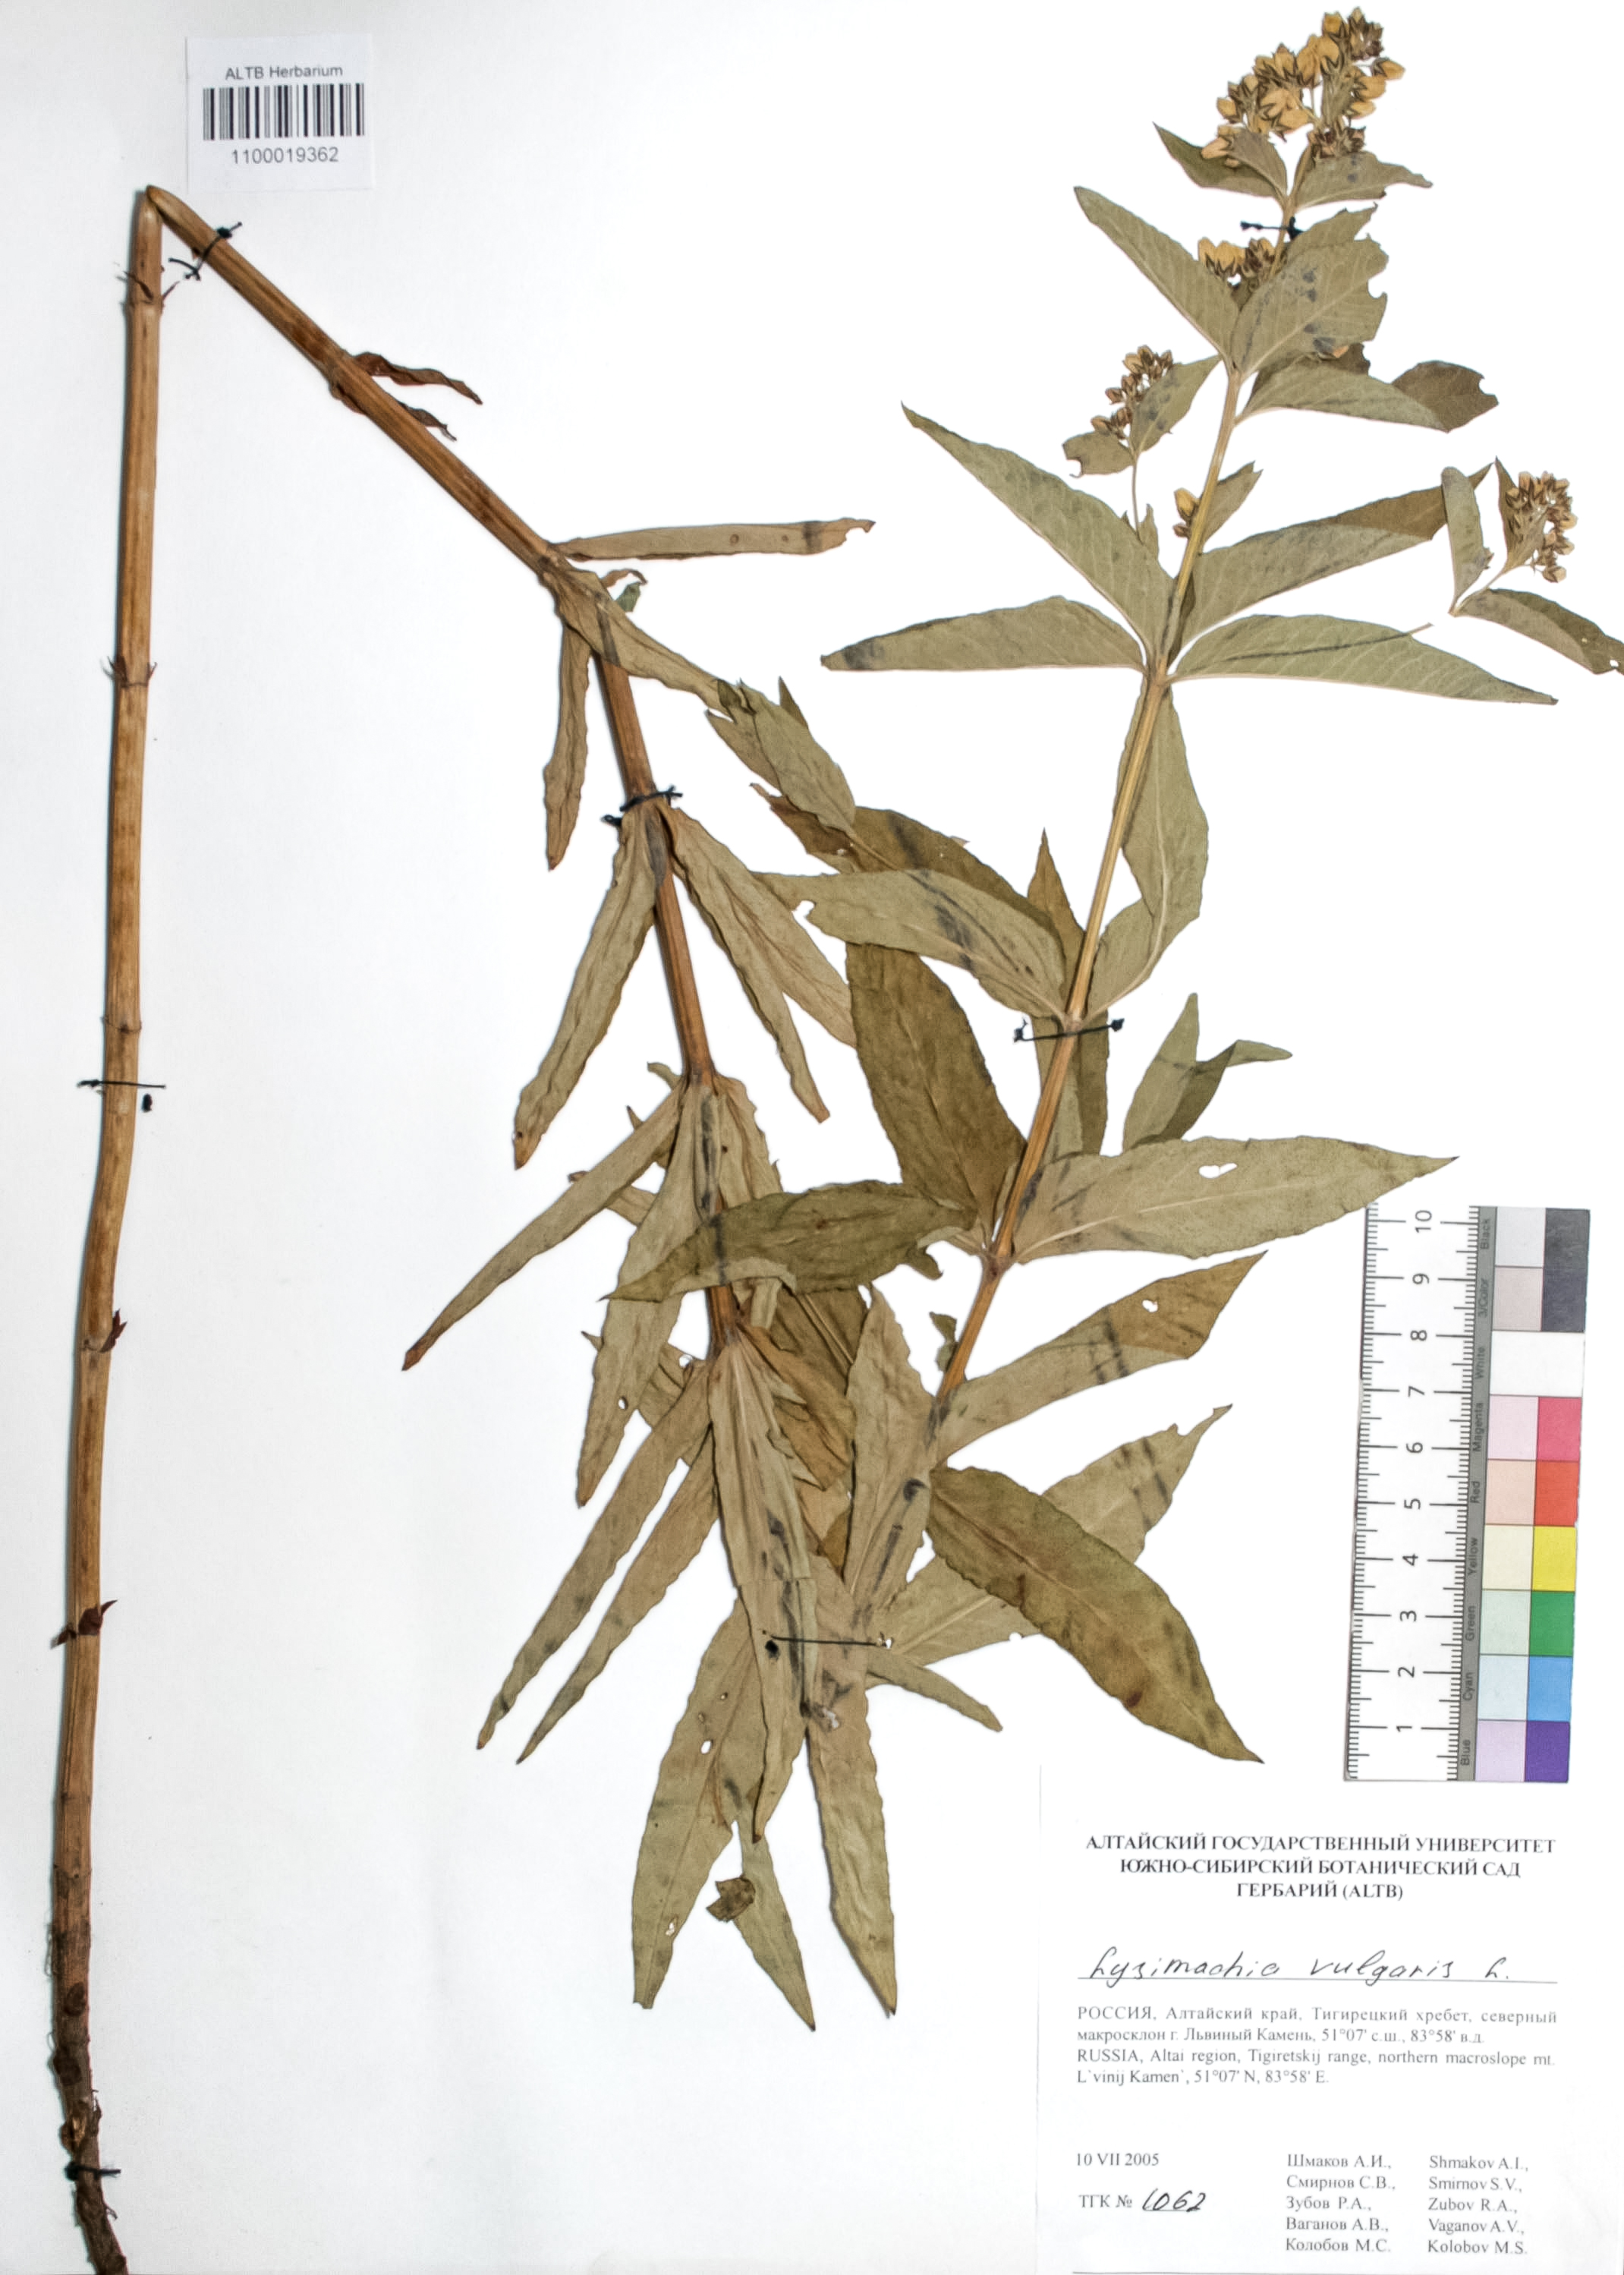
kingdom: Plantae
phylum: Tracheophyta
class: Magnoliopsida
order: Ericales
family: Primulaceae
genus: Lysimachia
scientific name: Lysimachia vulgaris
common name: Yellow loosestrife
